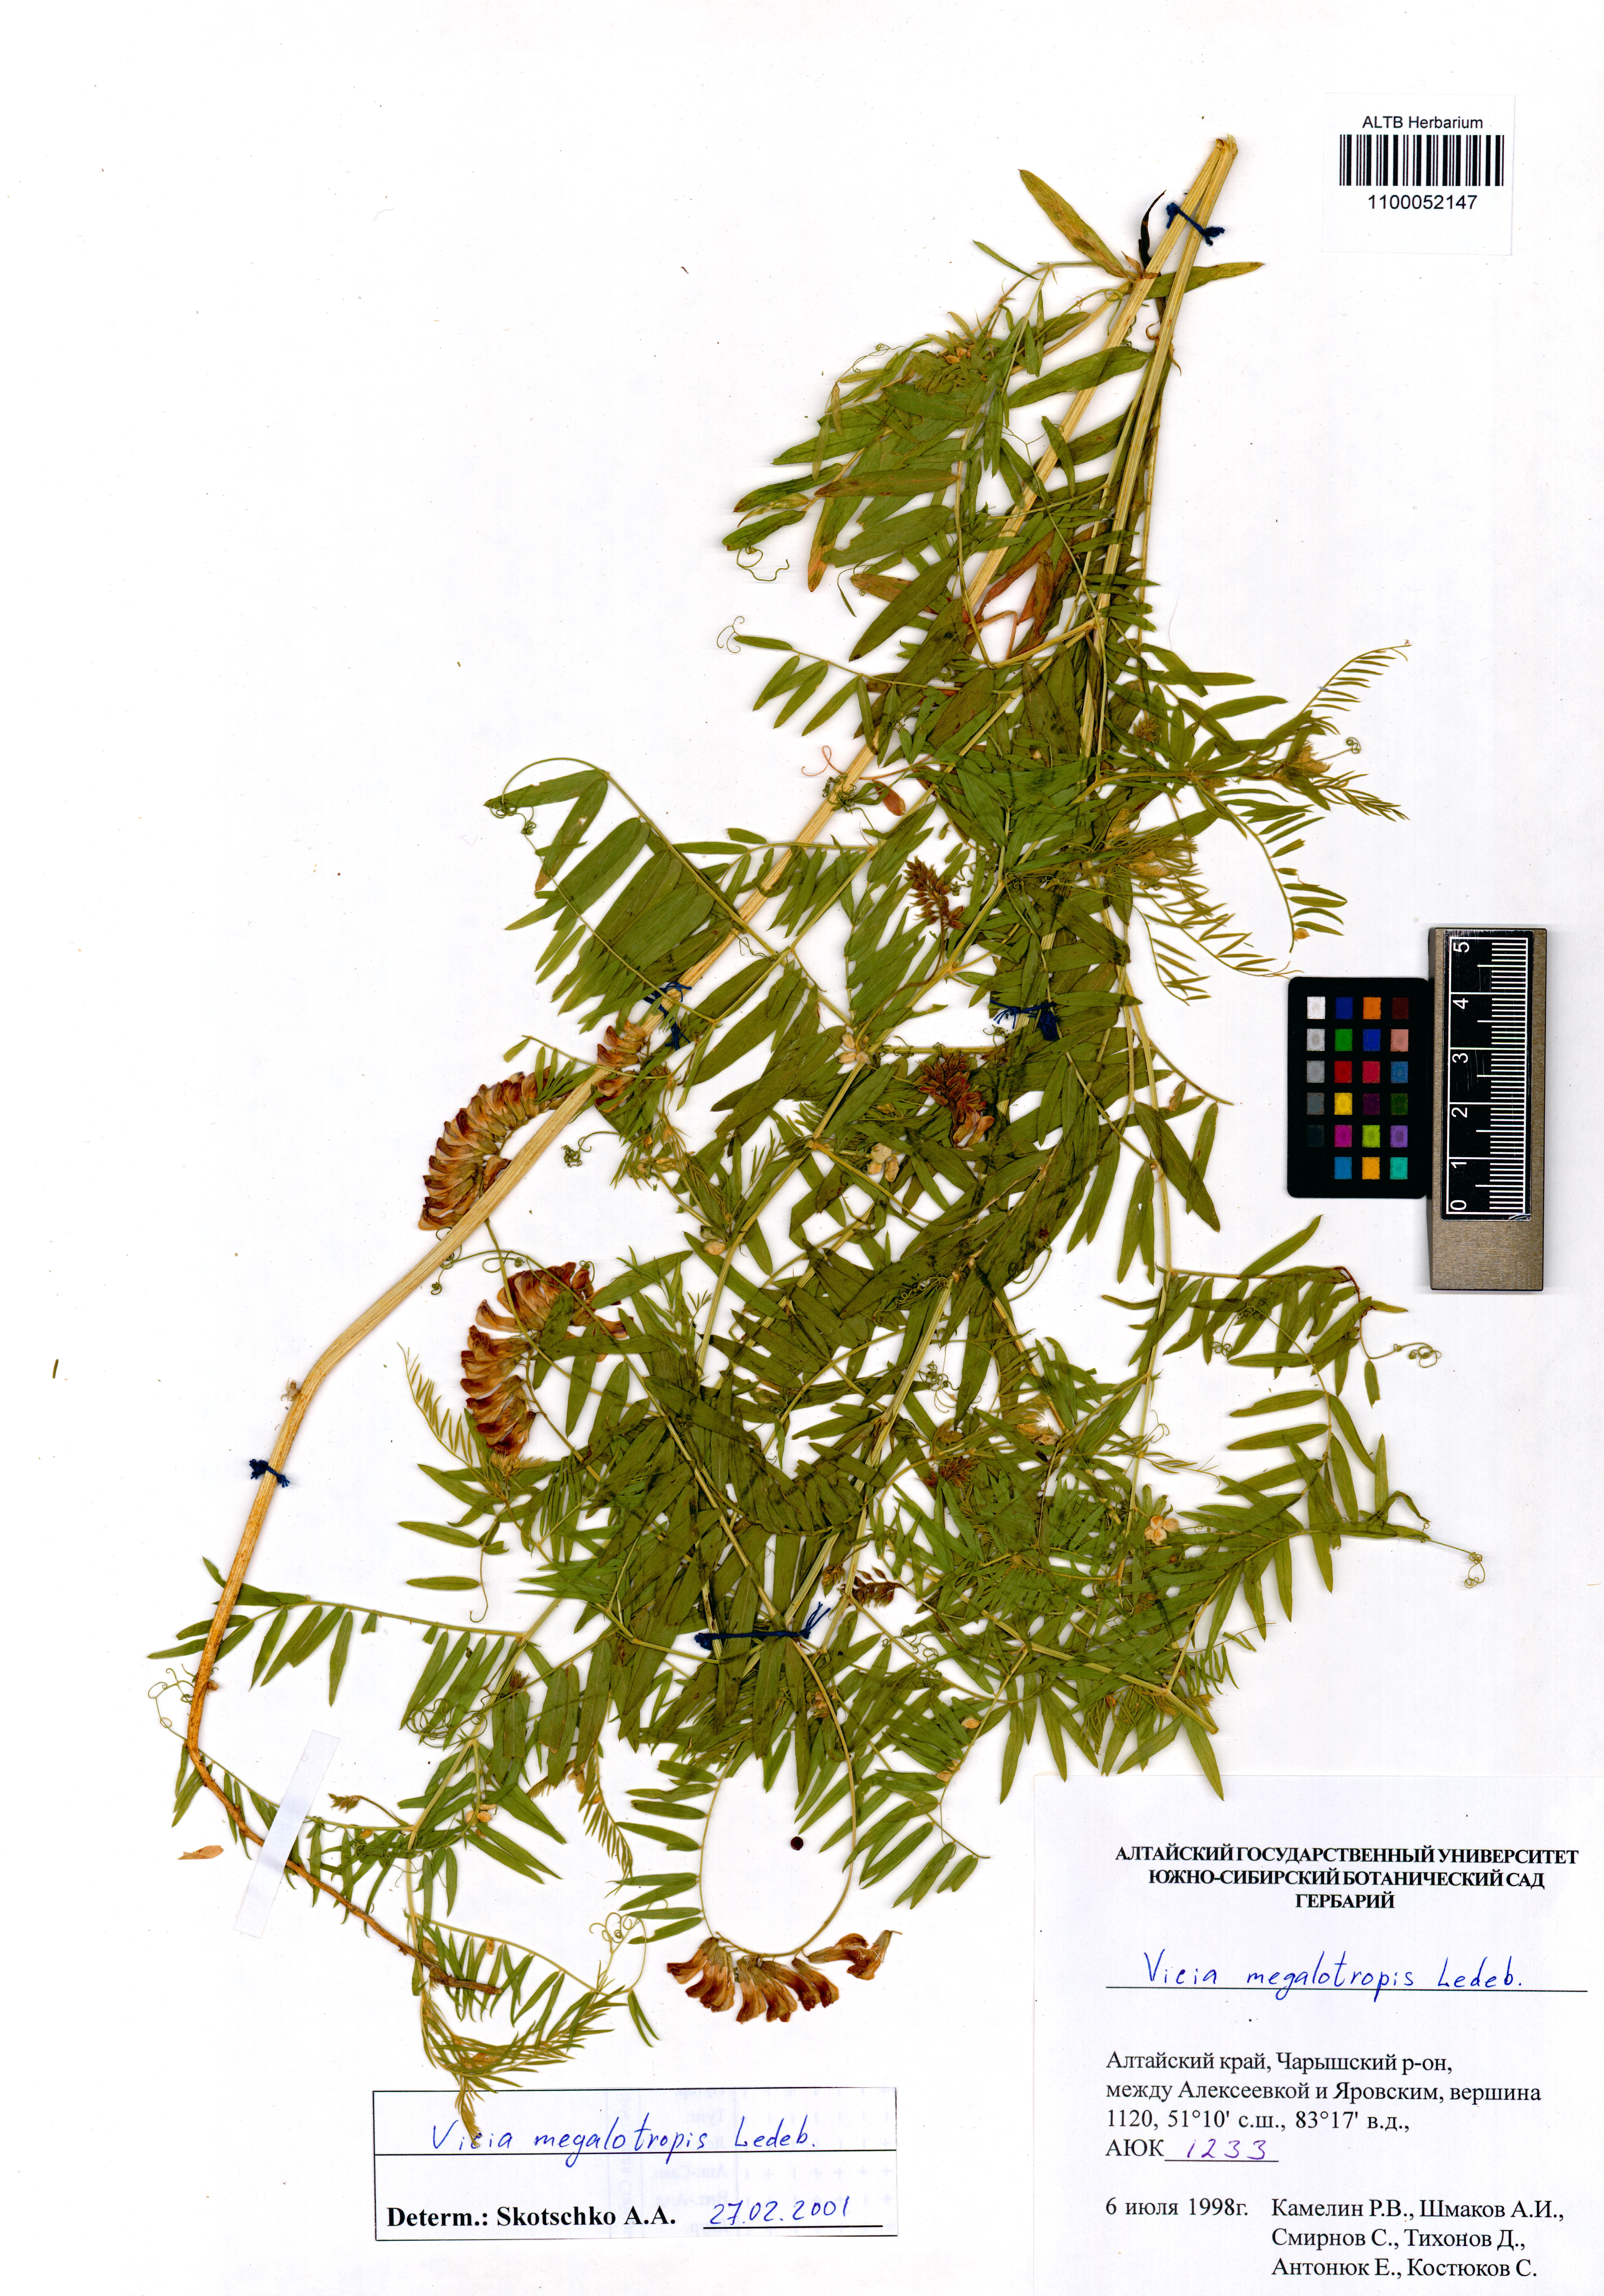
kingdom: Plantae
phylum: Tracheophyta
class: Magnoliopsida
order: Fabales
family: Fabaceae
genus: Vicia
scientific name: Vicia megalotropis
